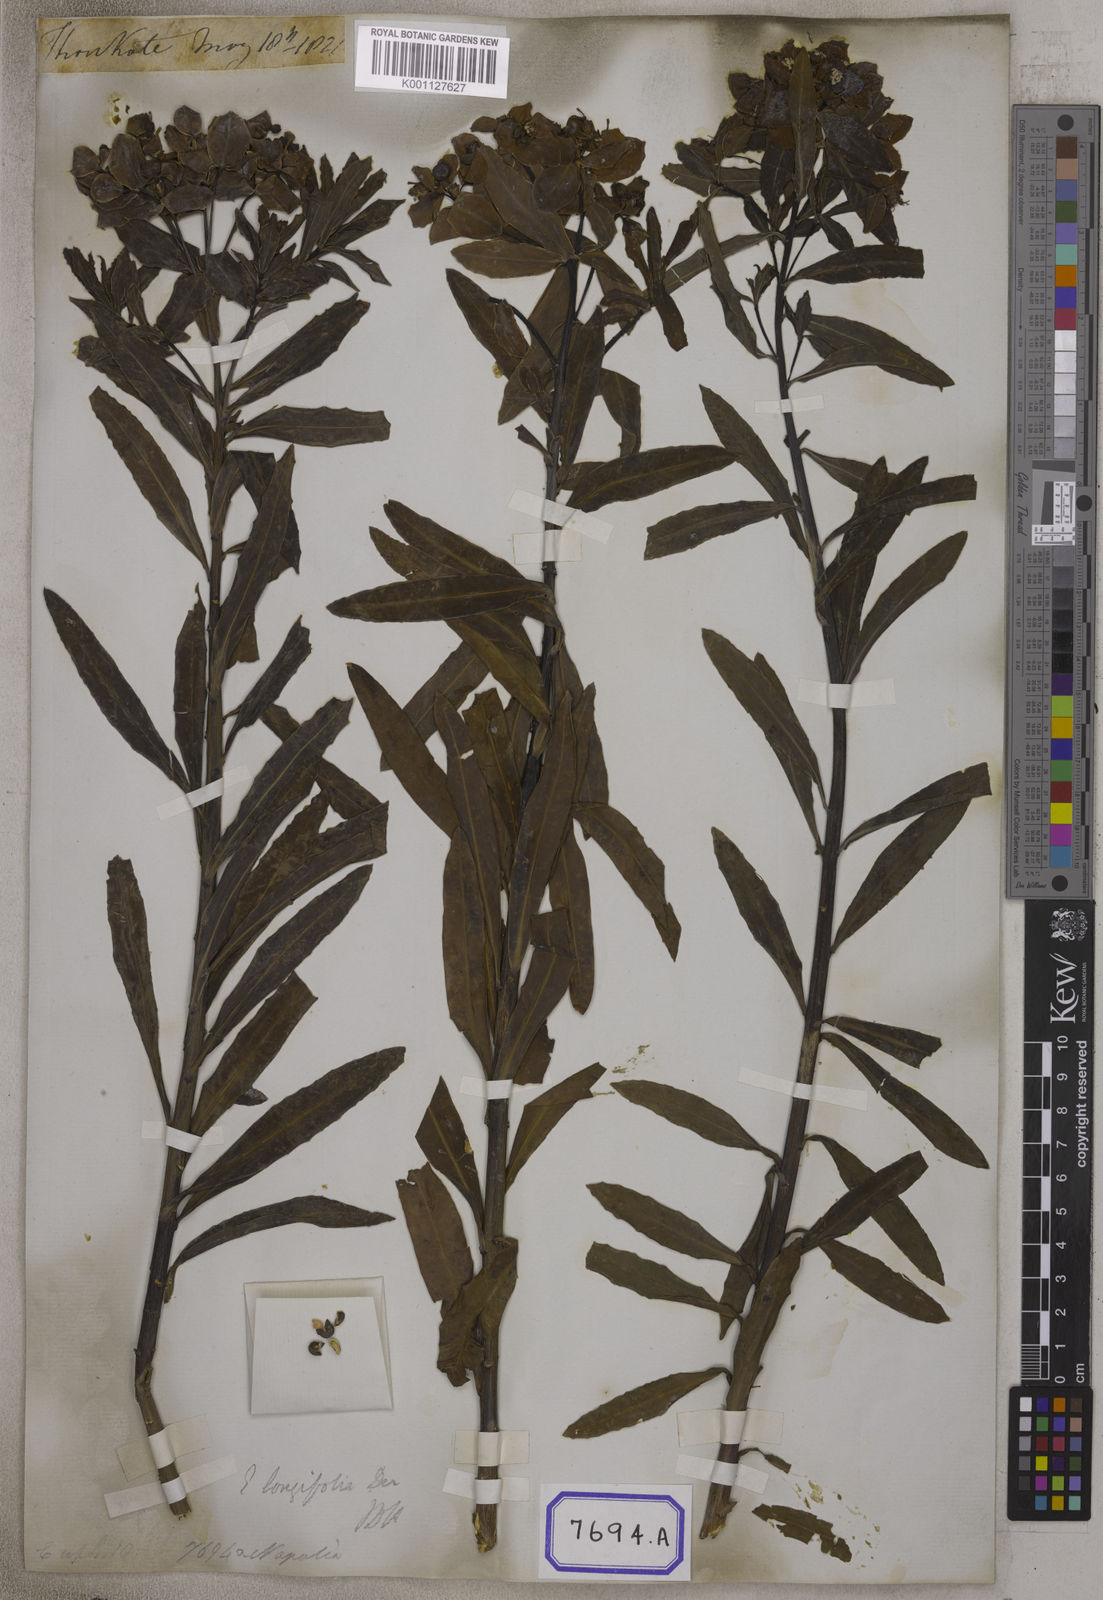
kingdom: Plantae
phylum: Tracheophyta
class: Magnoliopsida
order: Malpighiales
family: Euphorbiaceae
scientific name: Euphorbiaceae
